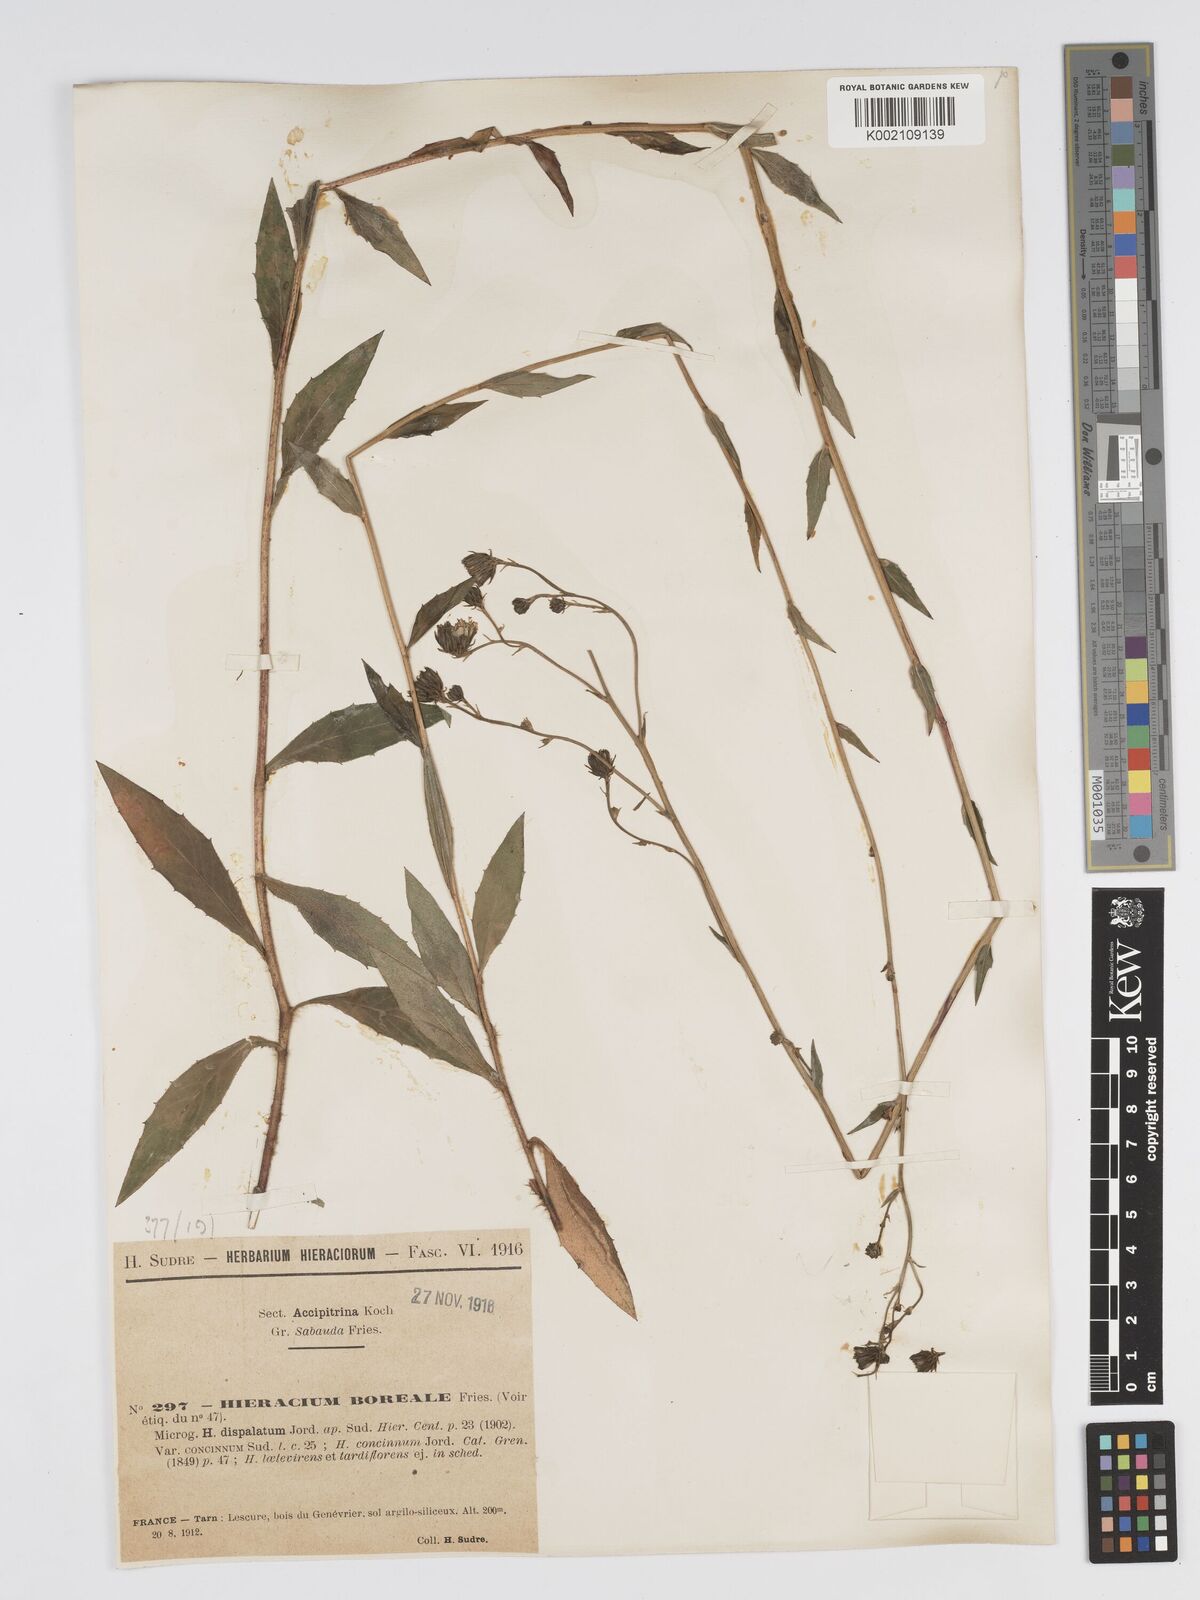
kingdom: Plantae
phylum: Tracheophyta
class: Magnoliopsida
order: Asterales
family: Asteraceae
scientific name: Asteraceae
